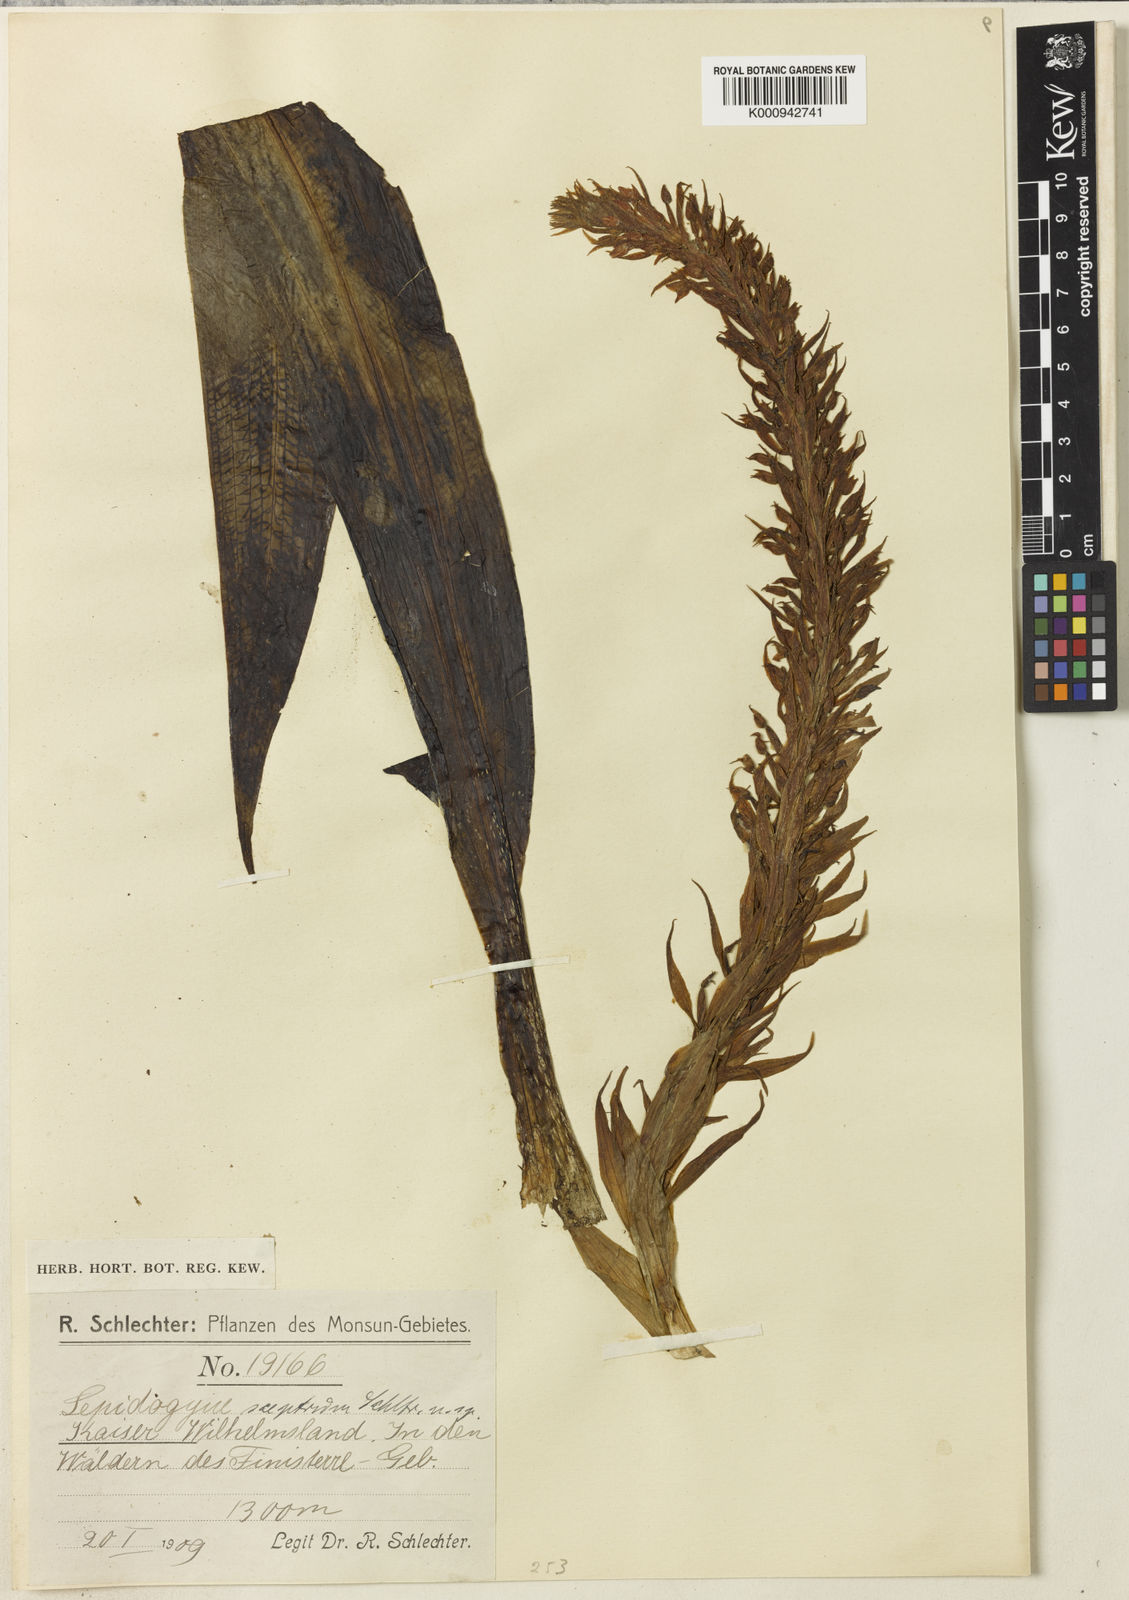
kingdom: Plantae
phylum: Tracheophyta
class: Liliopsida
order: Asparagales
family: Orchidaceae
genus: Lepidogyne
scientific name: Lepidogyne longifolia
